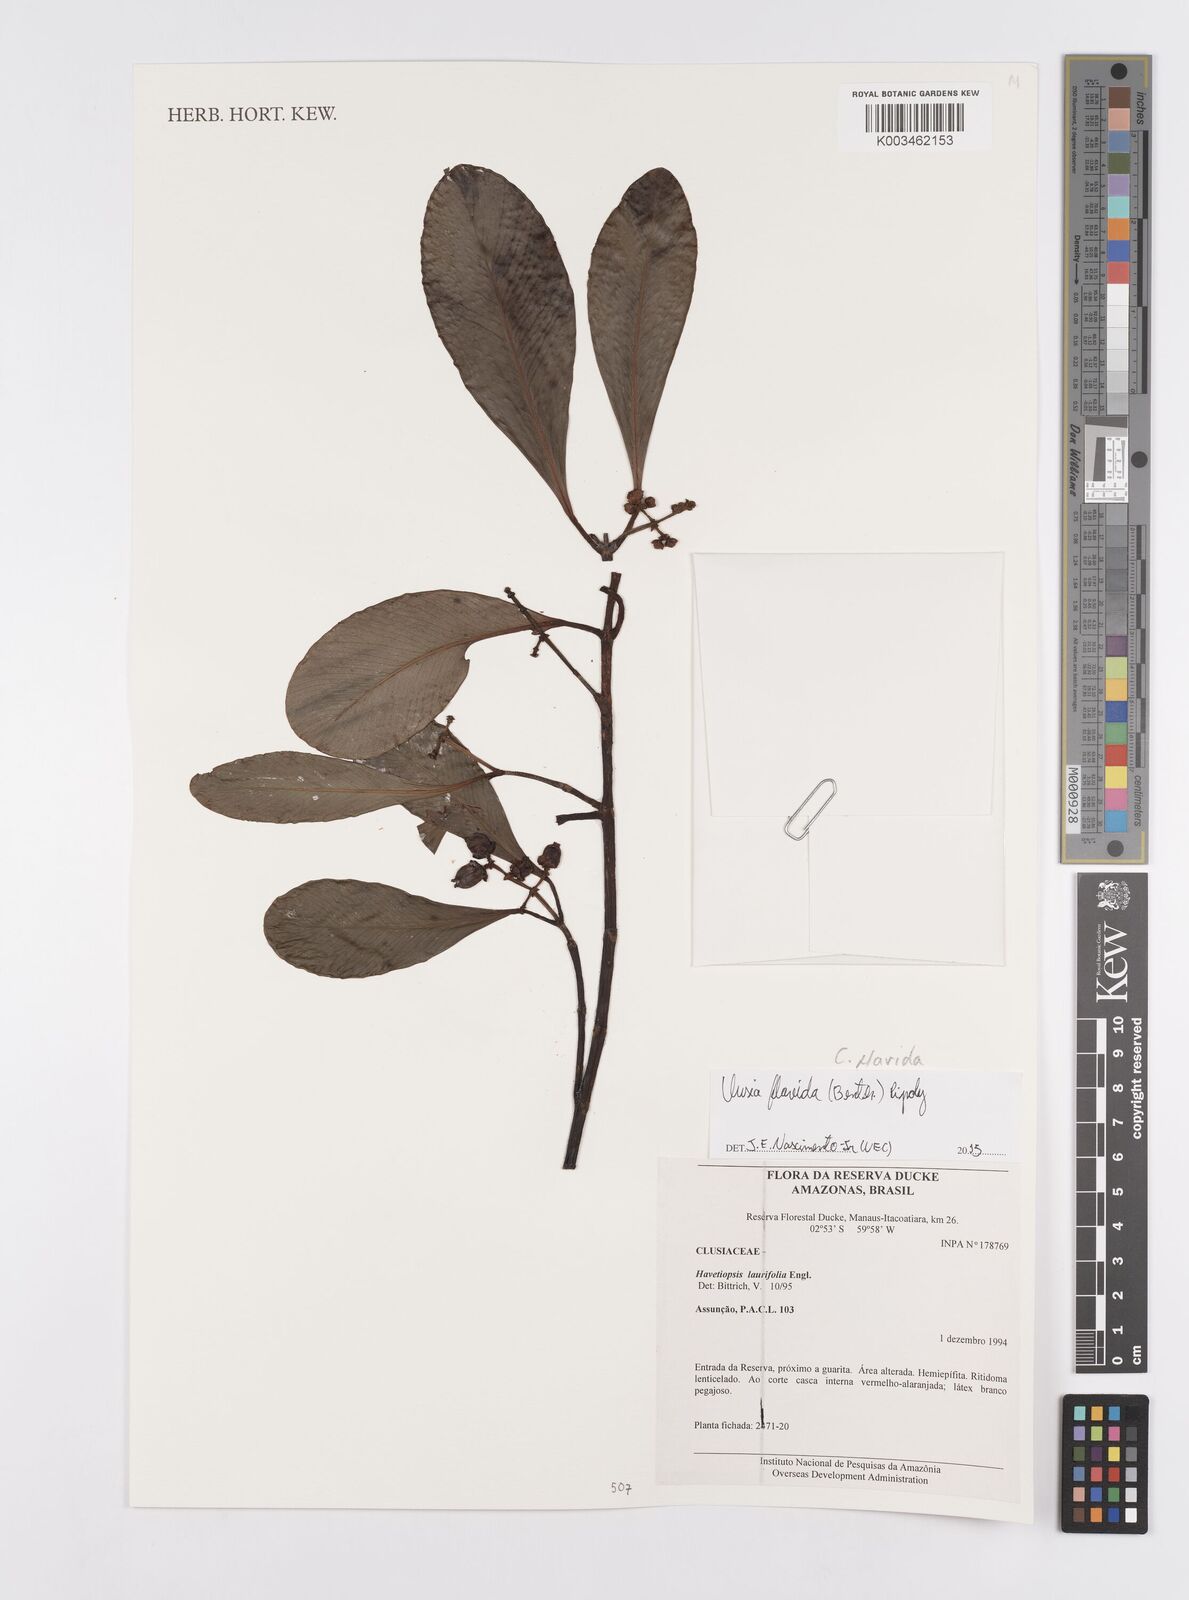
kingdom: Plantae
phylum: Tracheophyta
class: Magnoliopsida
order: Malpighiales
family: Clusiaceae
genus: Clusia
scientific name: Clusia flavida
